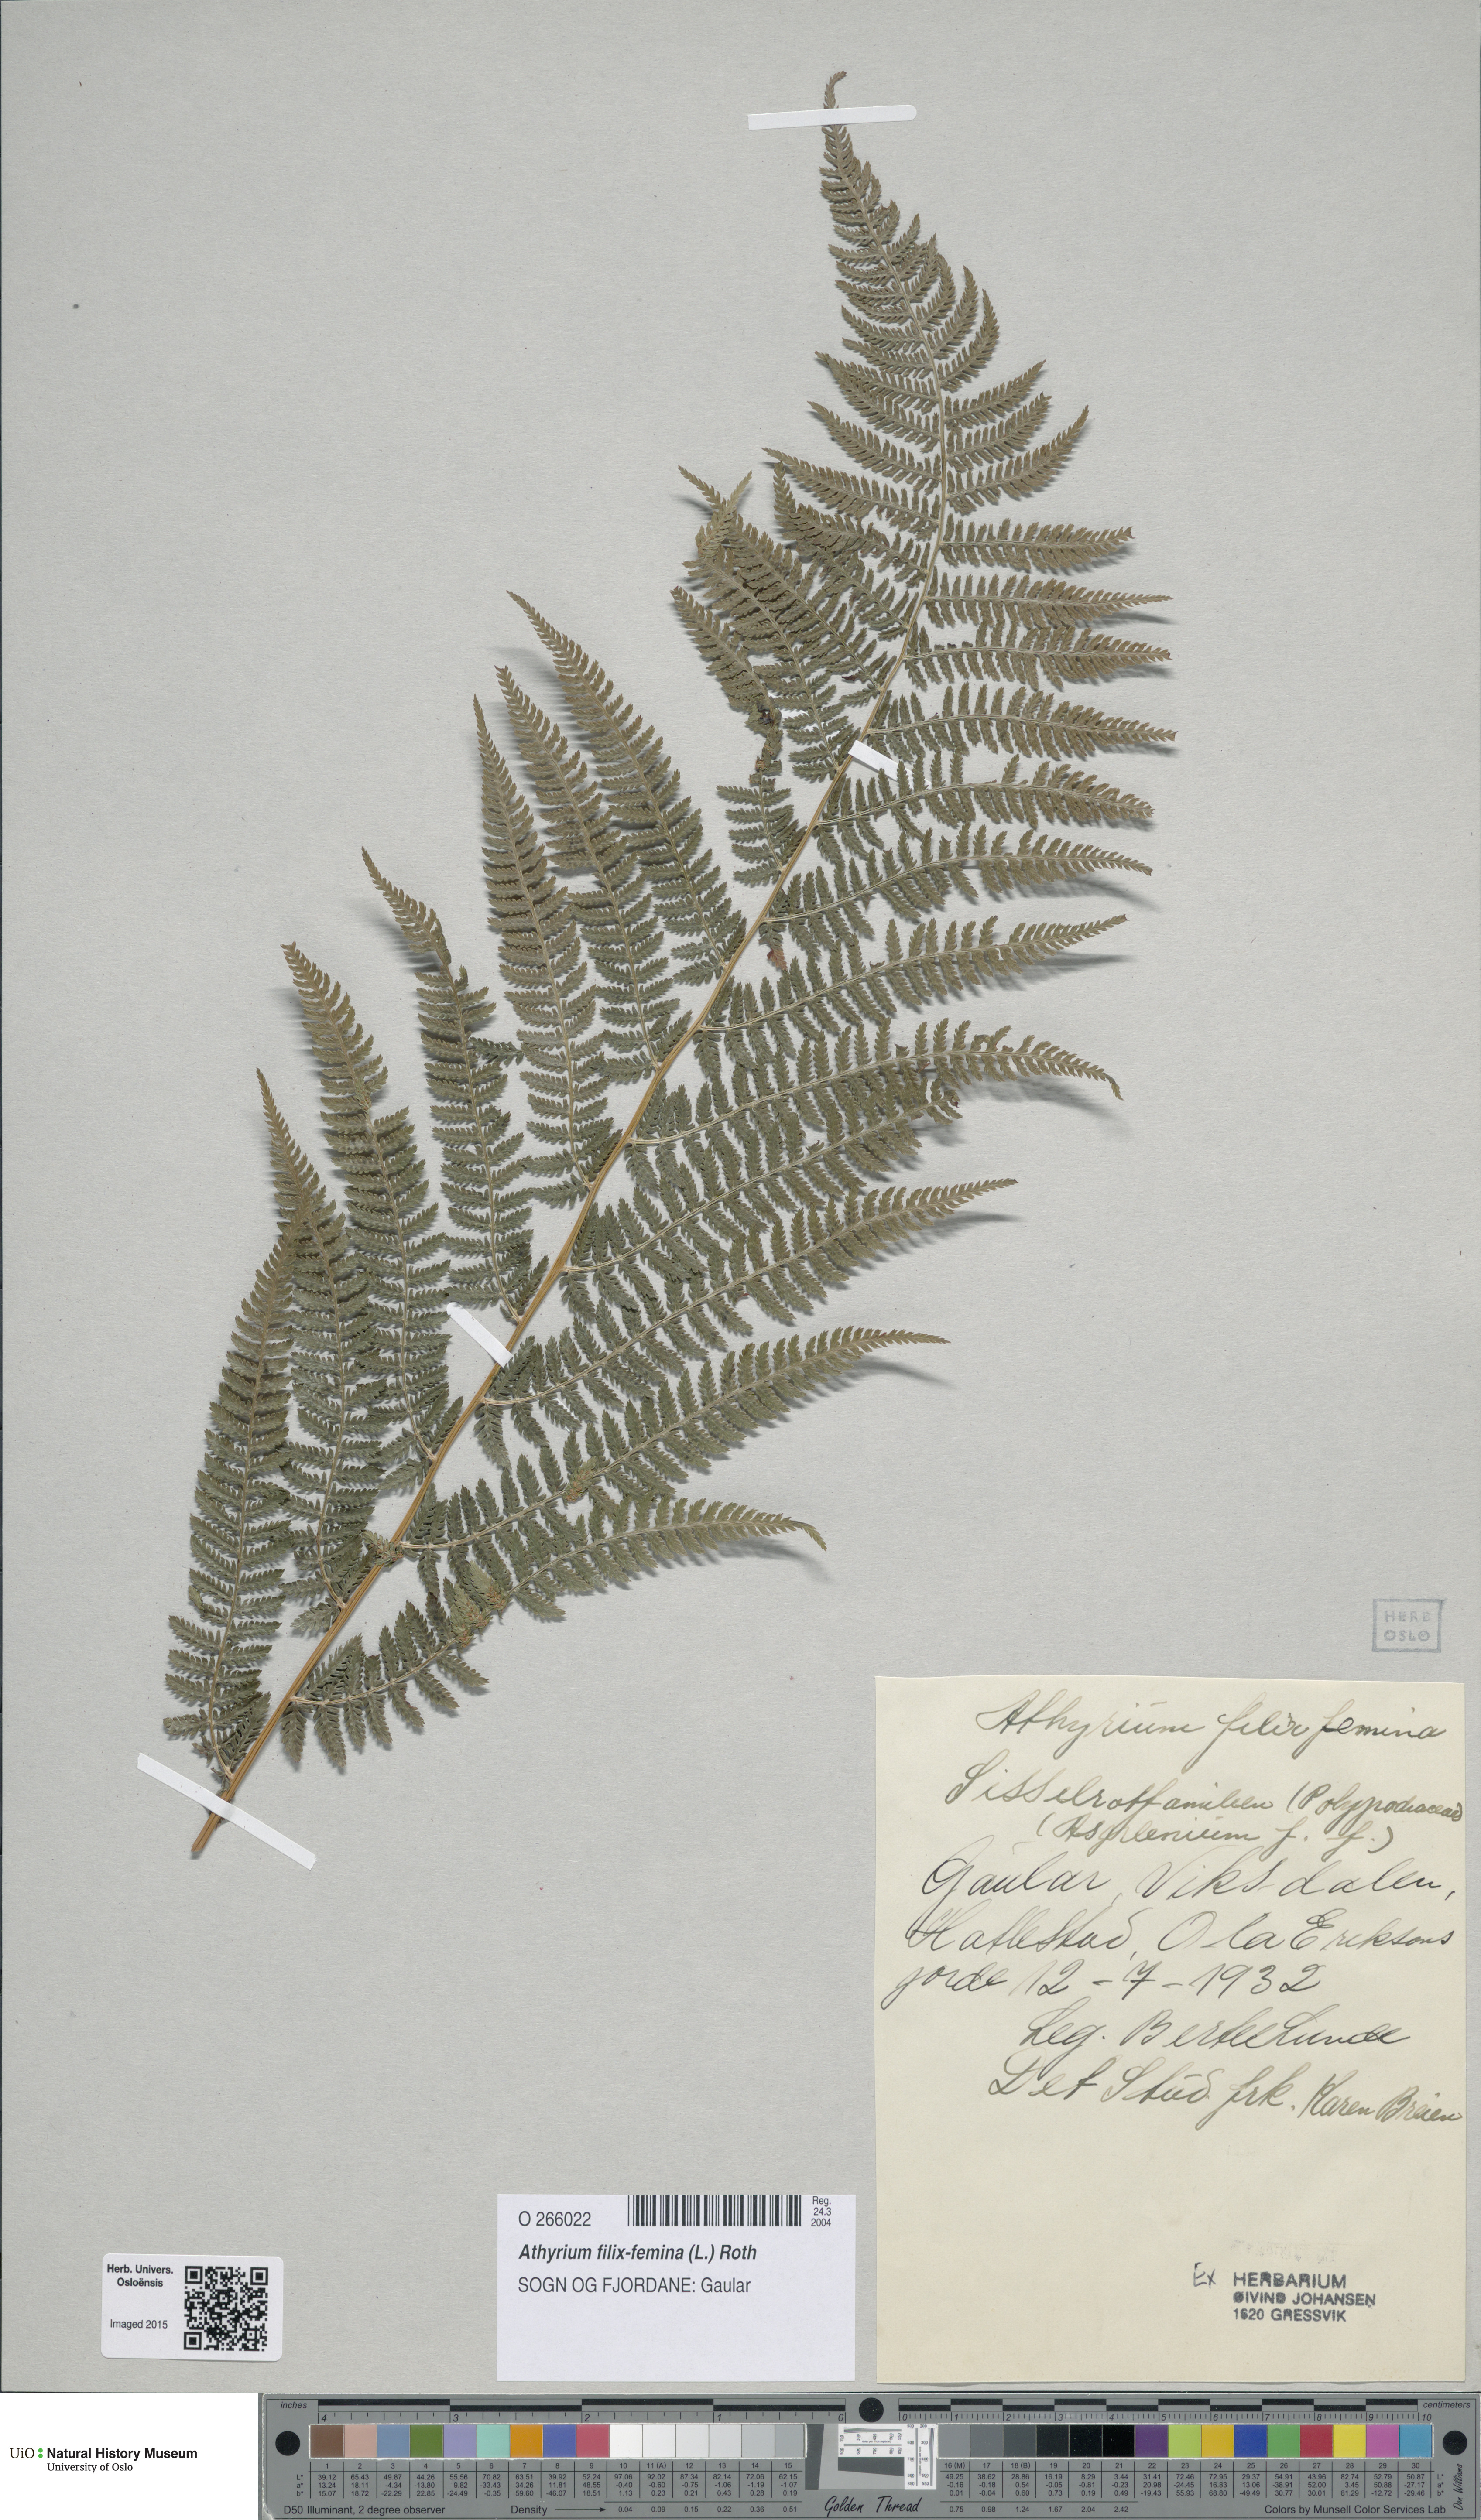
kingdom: Plantae
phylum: Tracheophyta
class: Polypodiopsida
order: Polypodiales
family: Athyriaceae
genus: Athyrium
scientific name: Athyrium filix-femina
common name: Lady fern
